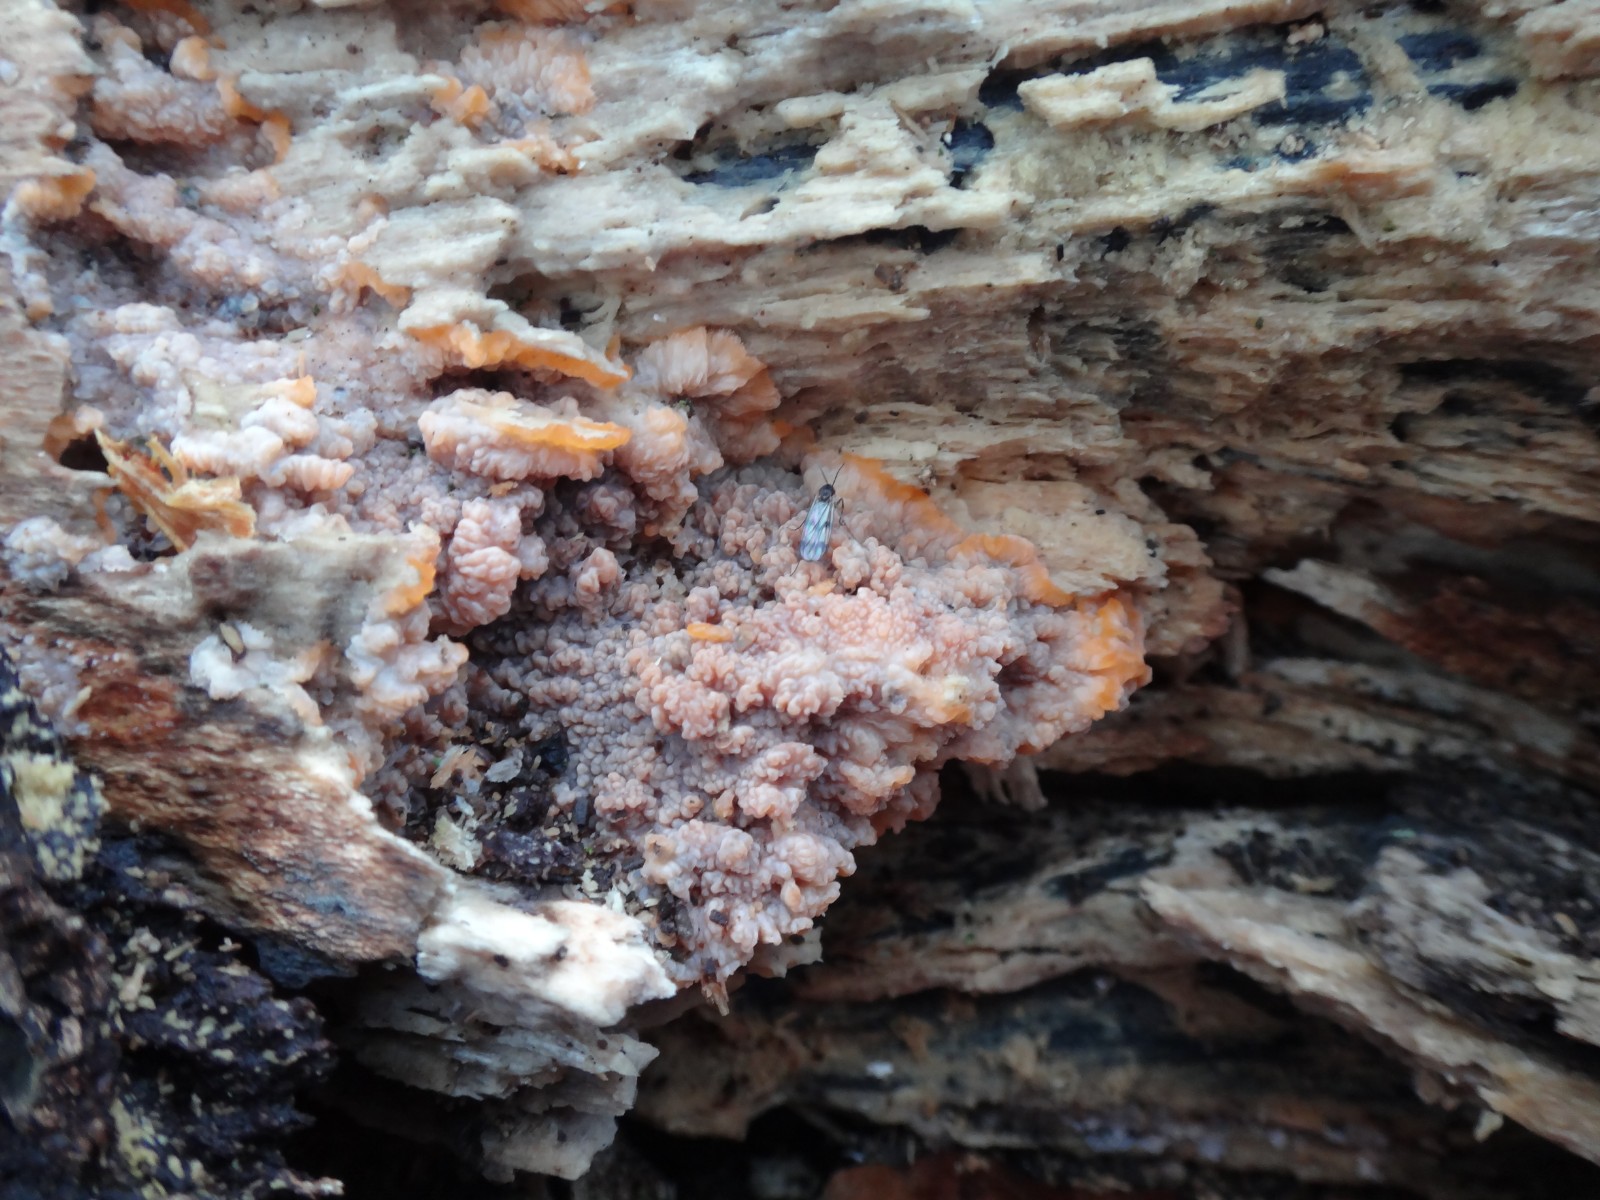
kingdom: Fungi
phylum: Basidiomycota
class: Agaricomycetes
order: Polyporales
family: Meruliaceae
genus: Phlebia
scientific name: Phlebia radiata
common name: stråle-åresvamp
